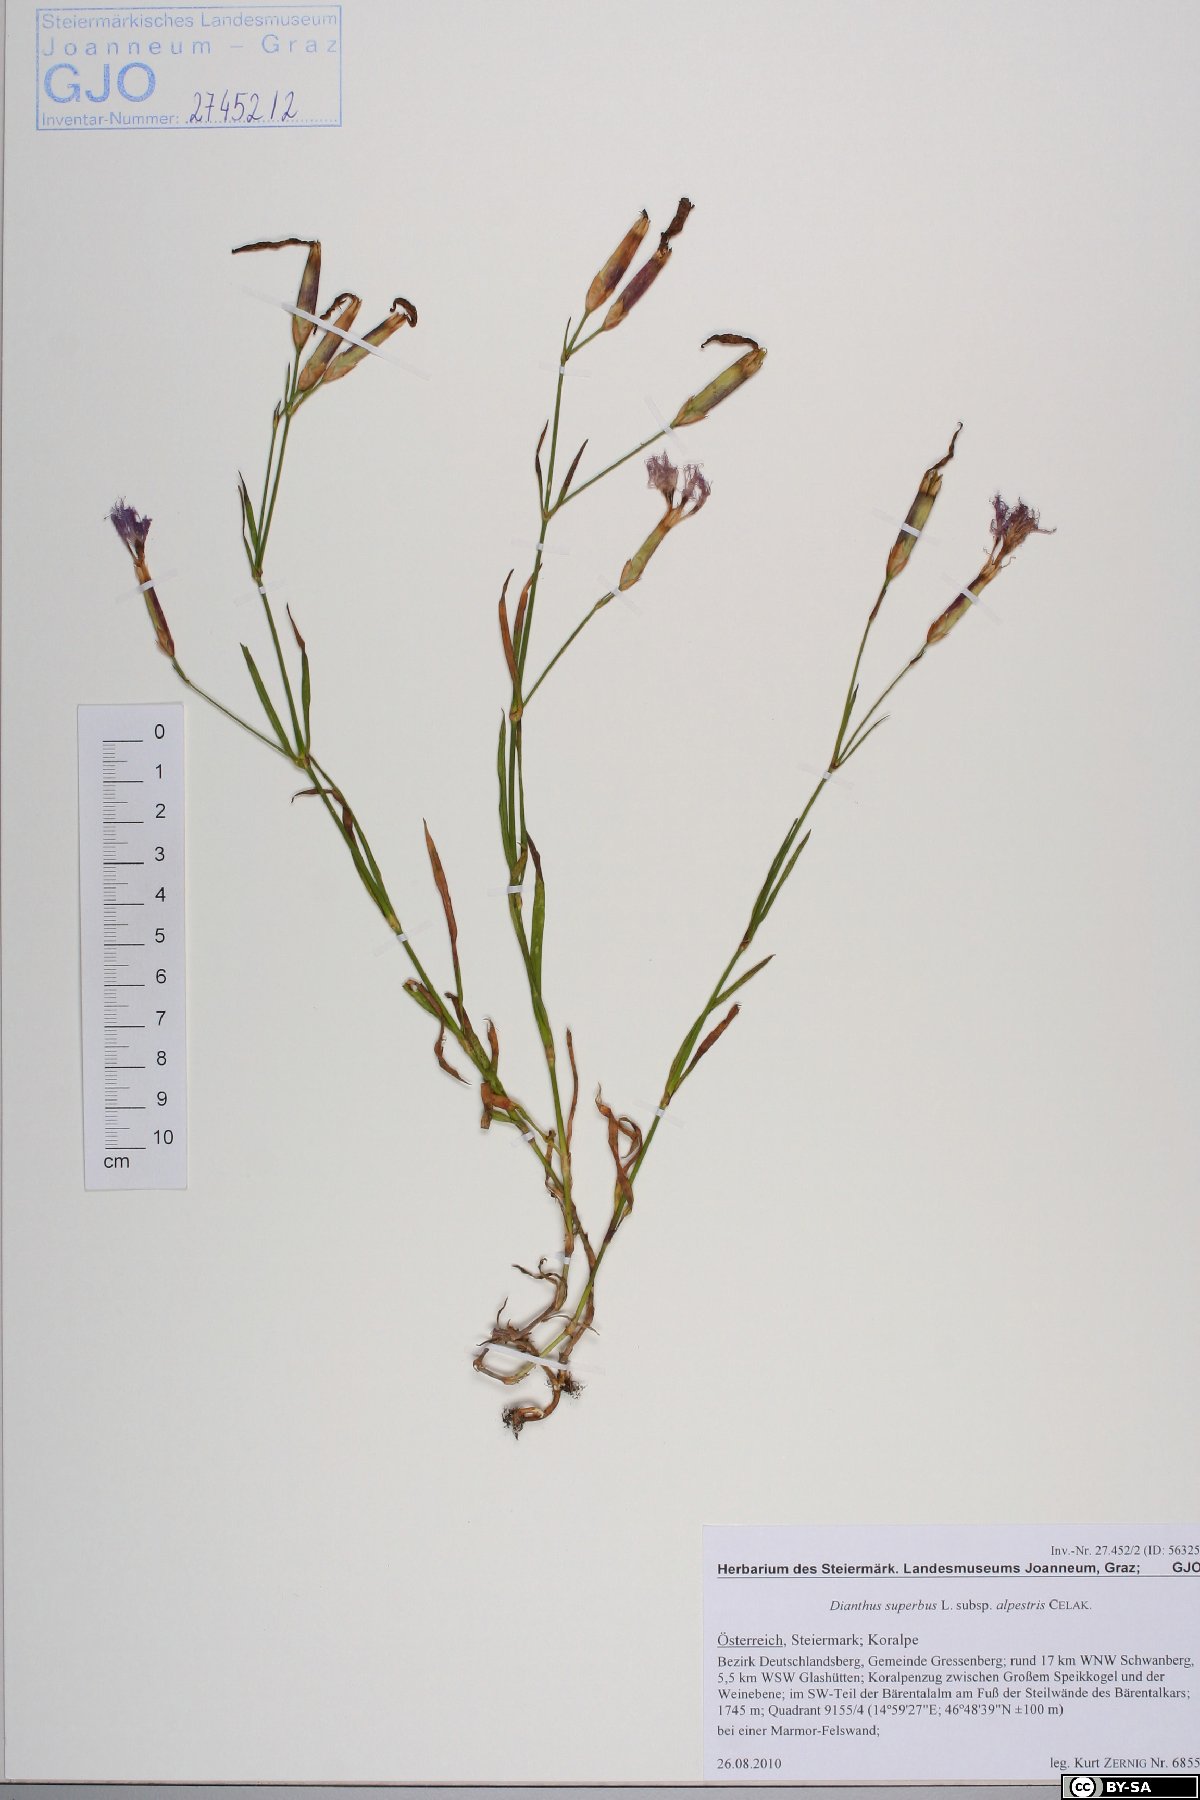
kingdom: Plantae
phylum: Tracheophyta
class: Magnoliopsida
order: Caryophyllales
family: Caryophyllaceae
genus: Dianthus
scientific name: Dianthus superbus
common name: Fringed pink
